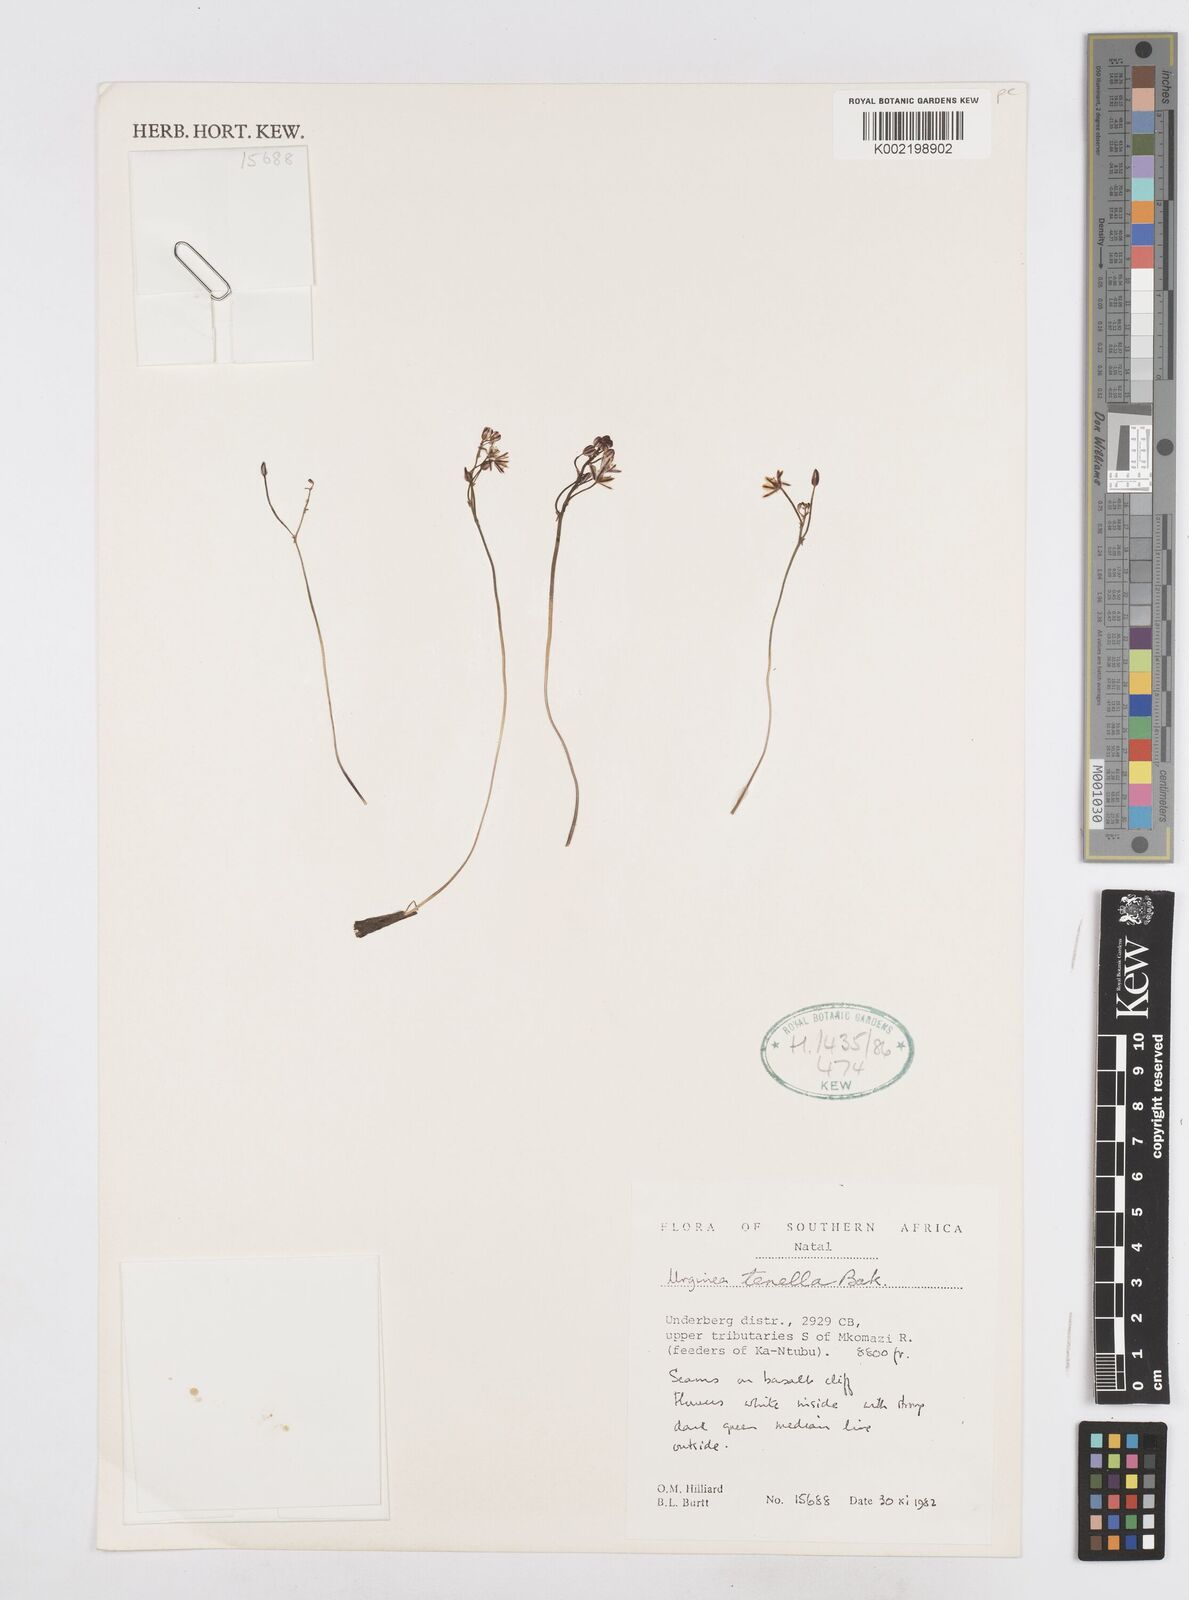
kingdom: Plantae
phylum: Tracheophyta
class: Liliopsida
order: Asparagales
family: Asparagaceae
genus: Drimia
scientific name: Drimia
